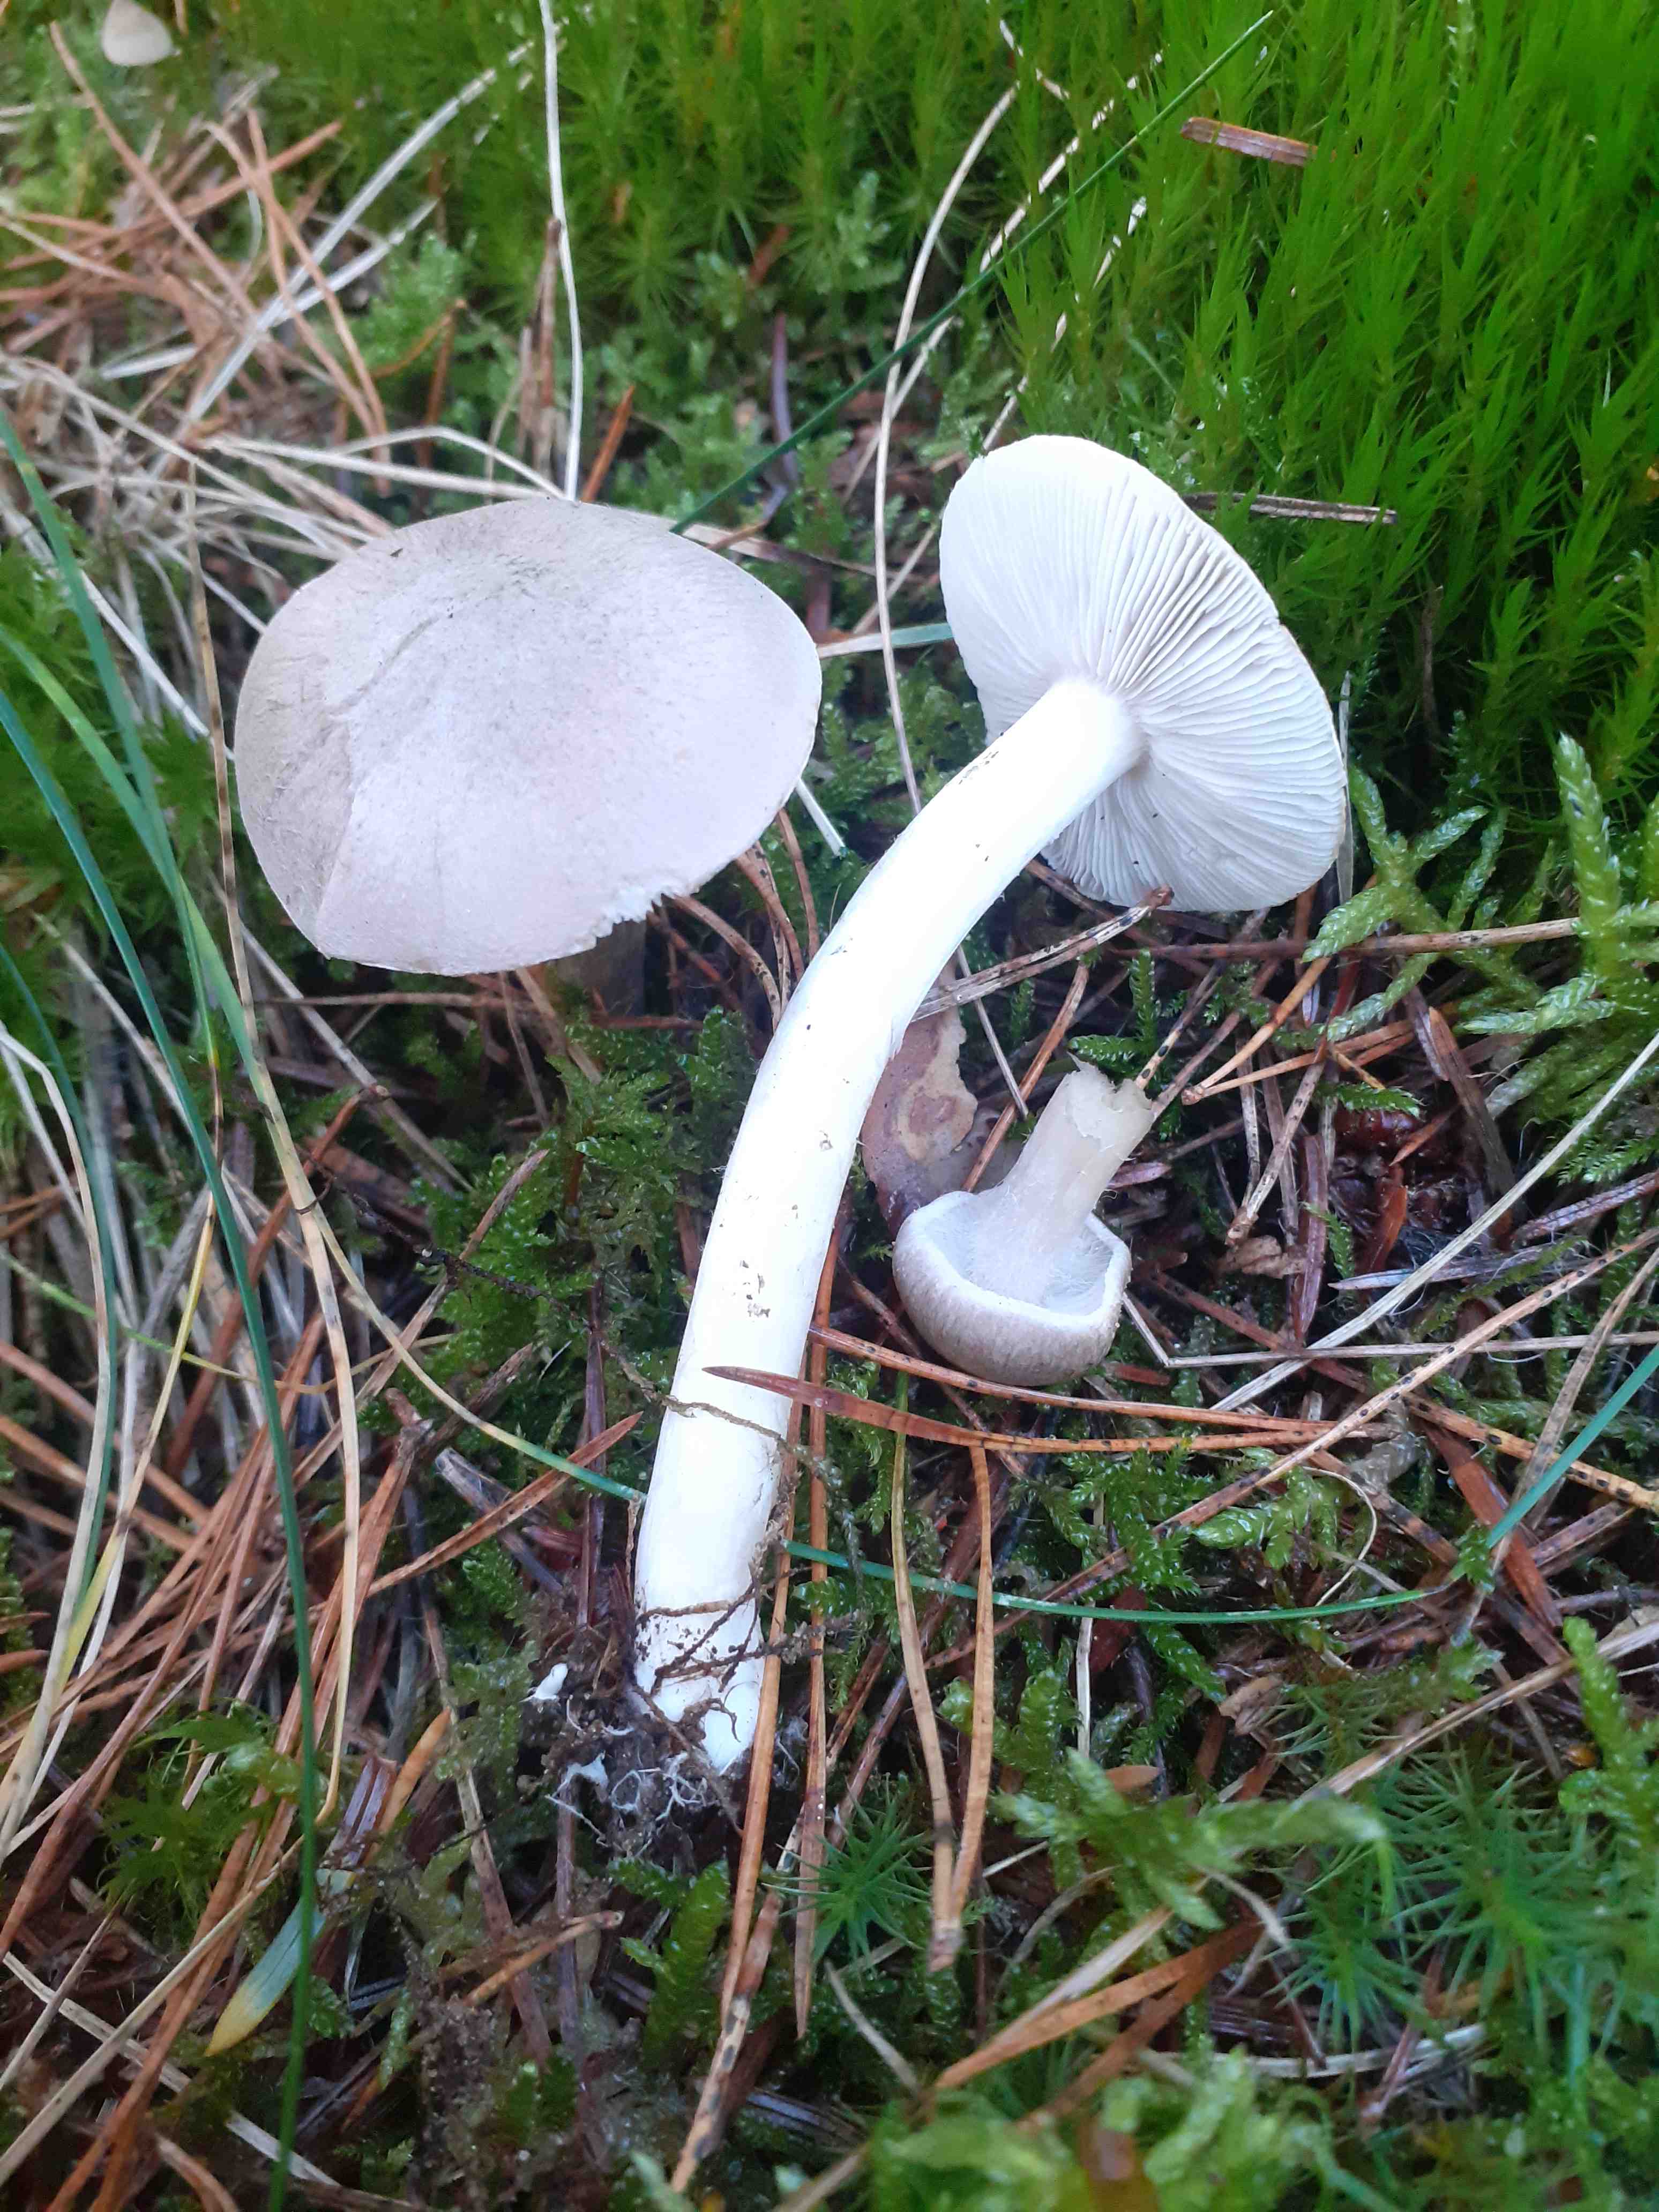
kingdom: Fungi
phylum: Basidiomycota
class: Agaricomycetes
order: Agaricales
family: Tricholomataceae
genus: Tricholoma
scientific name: Tricholoma argyraceum
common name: slør-ridderhat
